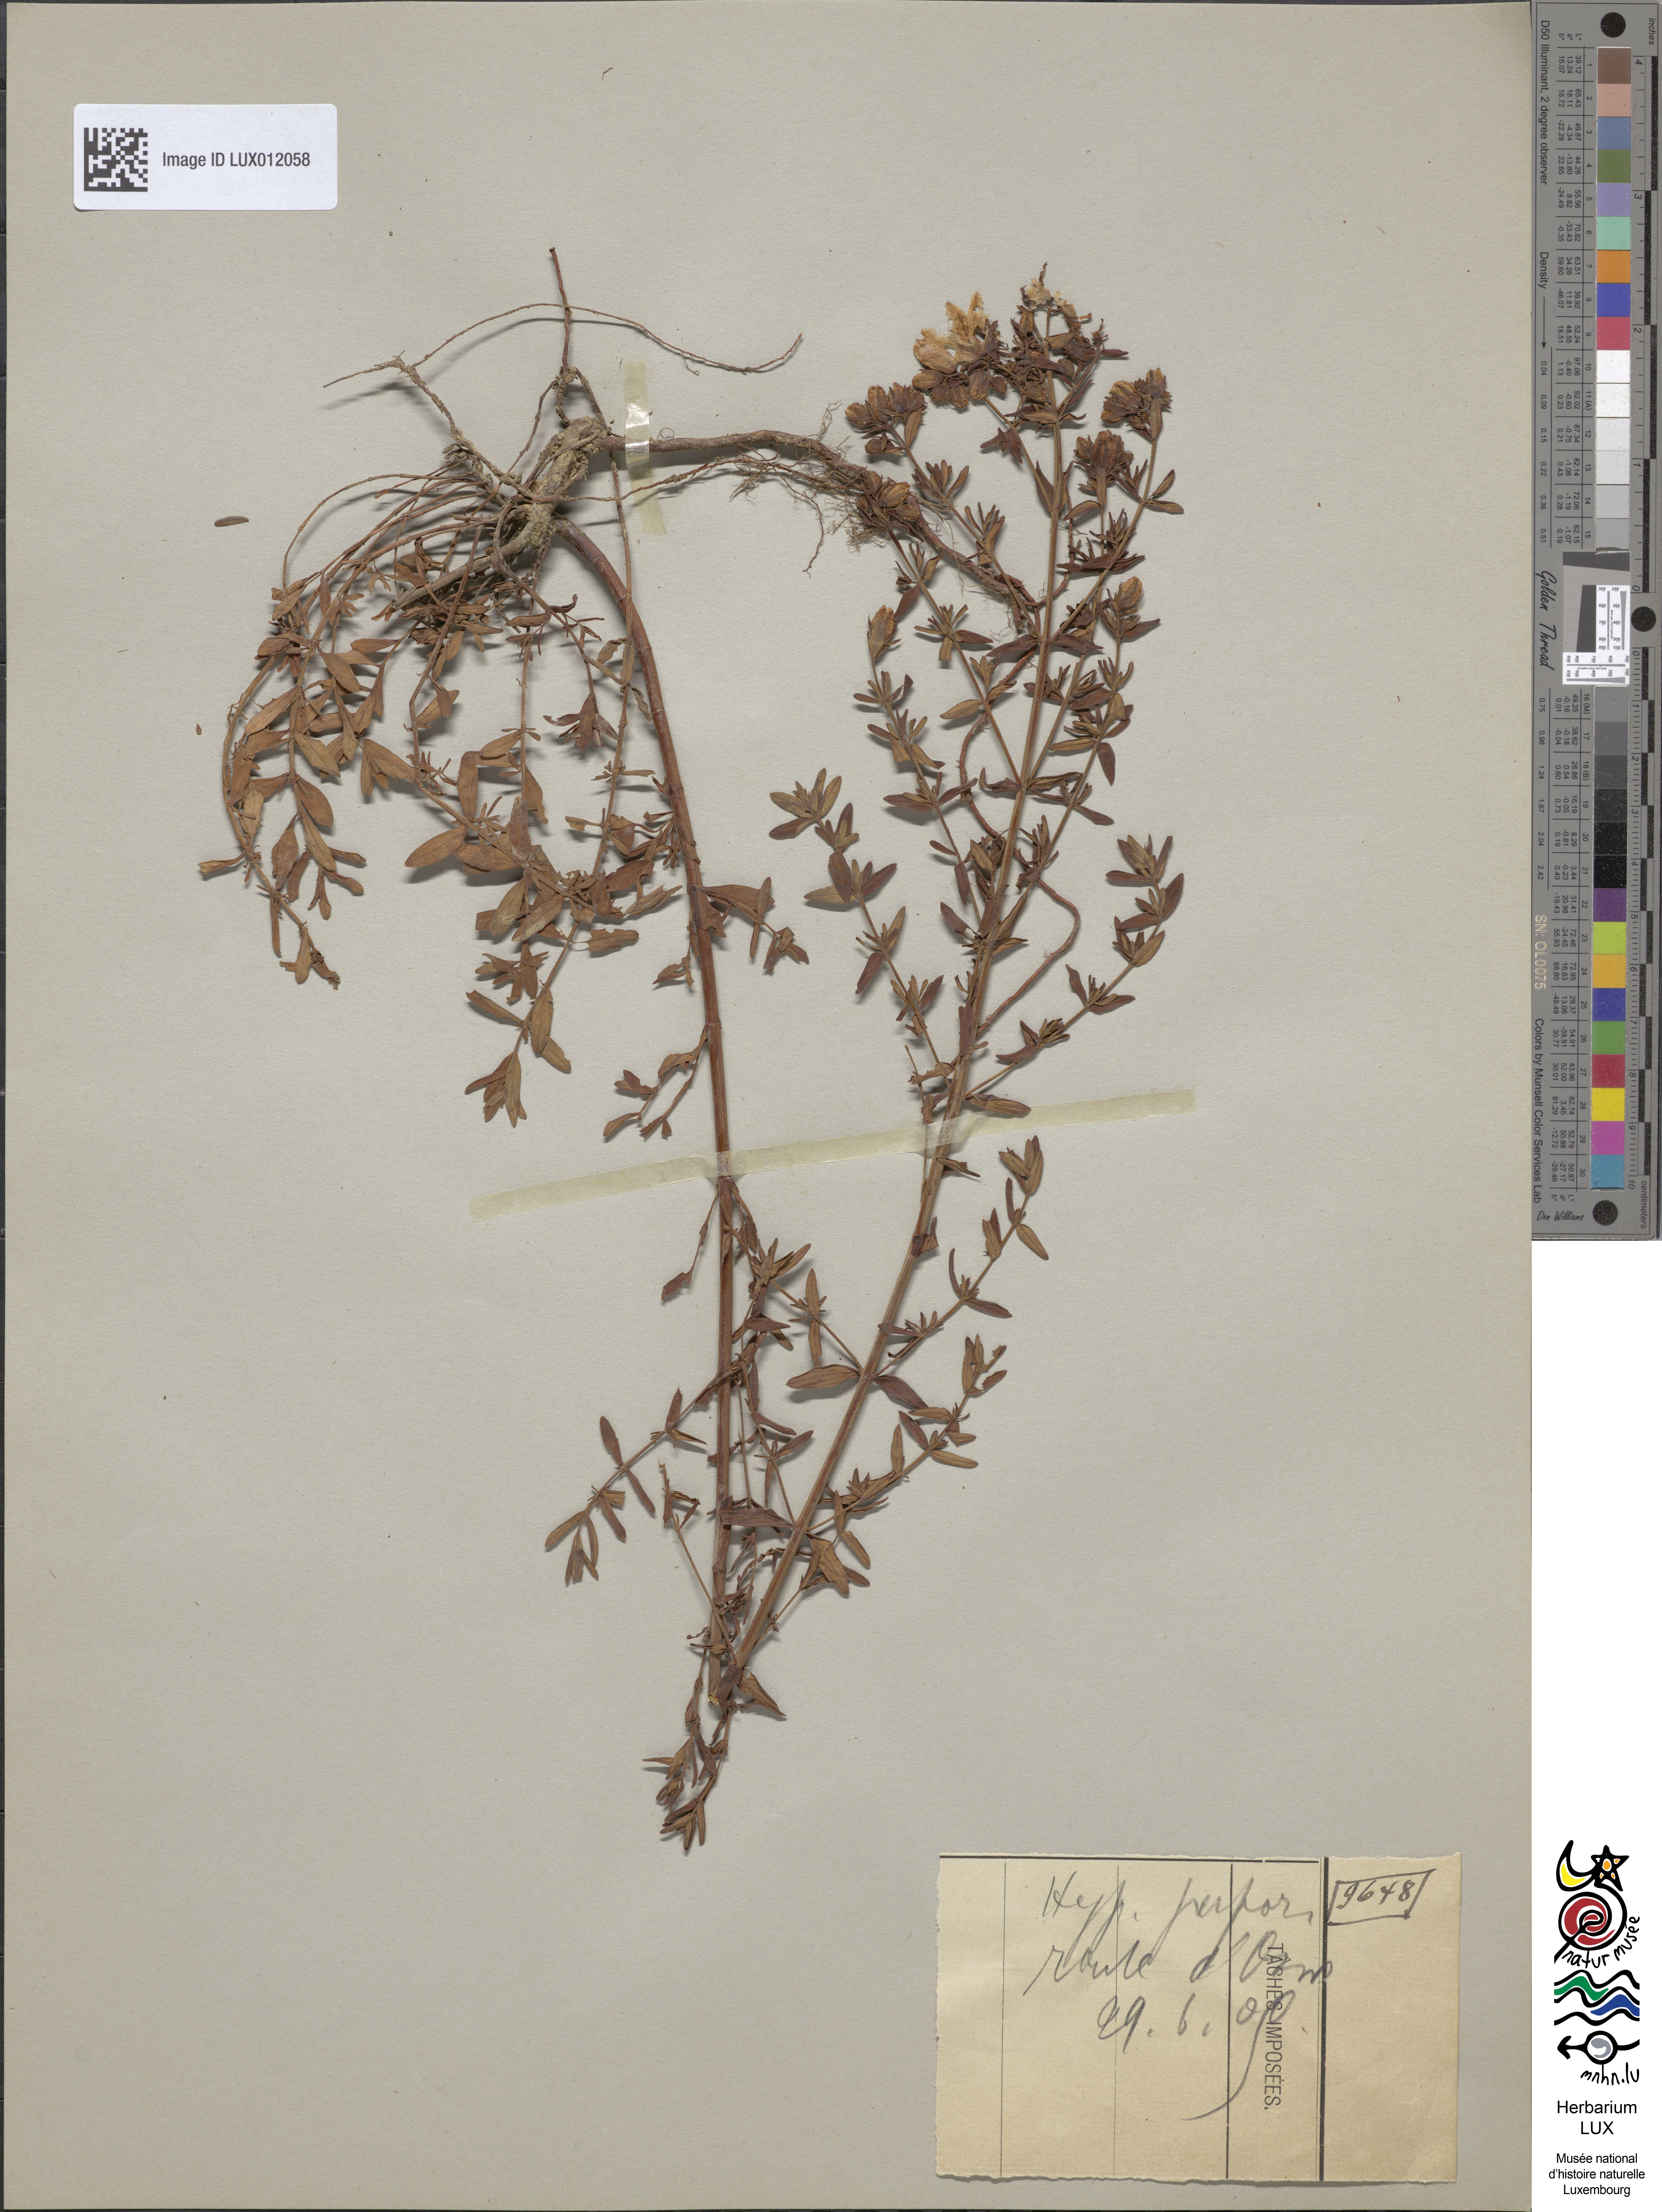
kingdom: Plantae
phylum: Tracheophyta
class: Magnoliopsida
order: Malpighiales
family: Hypericaceae
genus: Hypericum
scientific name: Hypericum perforatum
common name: Common st. johnswort
